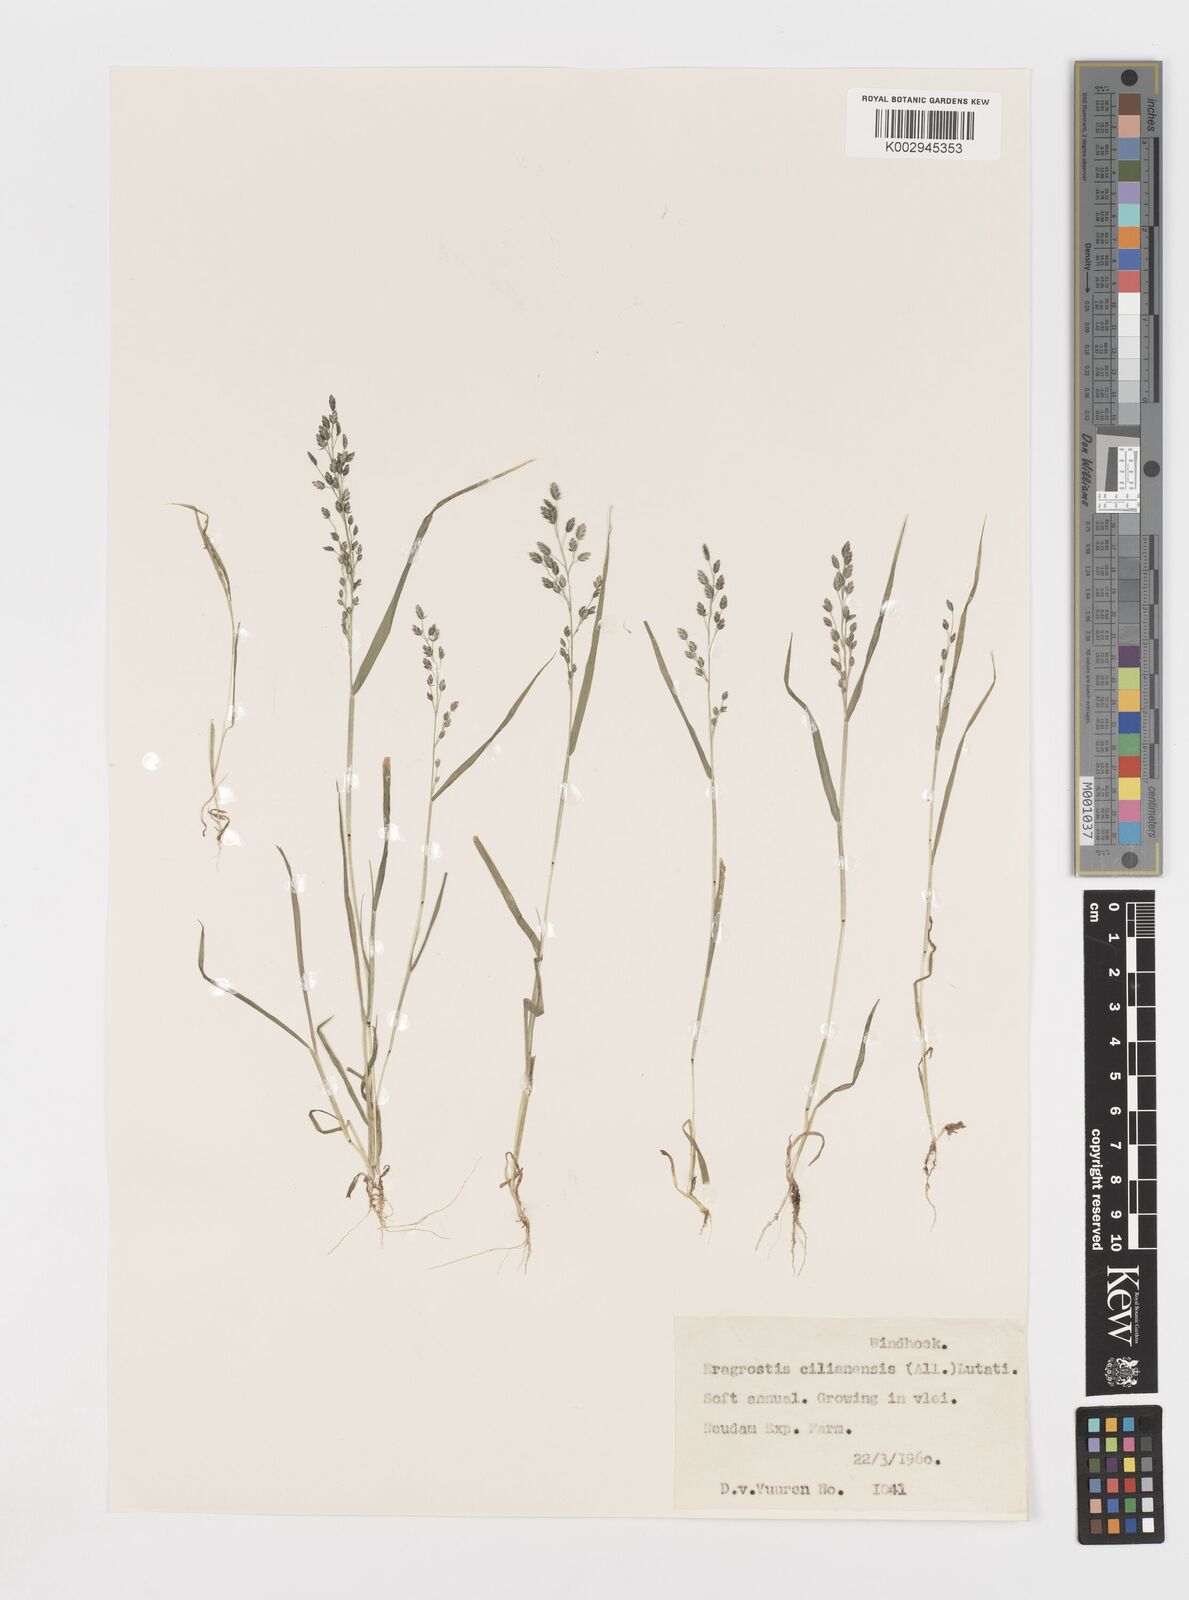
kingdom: Plantae
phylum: Tracheophyta
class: Liliopsida
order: Poales
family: Poaceae
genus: Eragrostis
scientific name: Eragrostis cilianensis
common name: Stinkgrass
